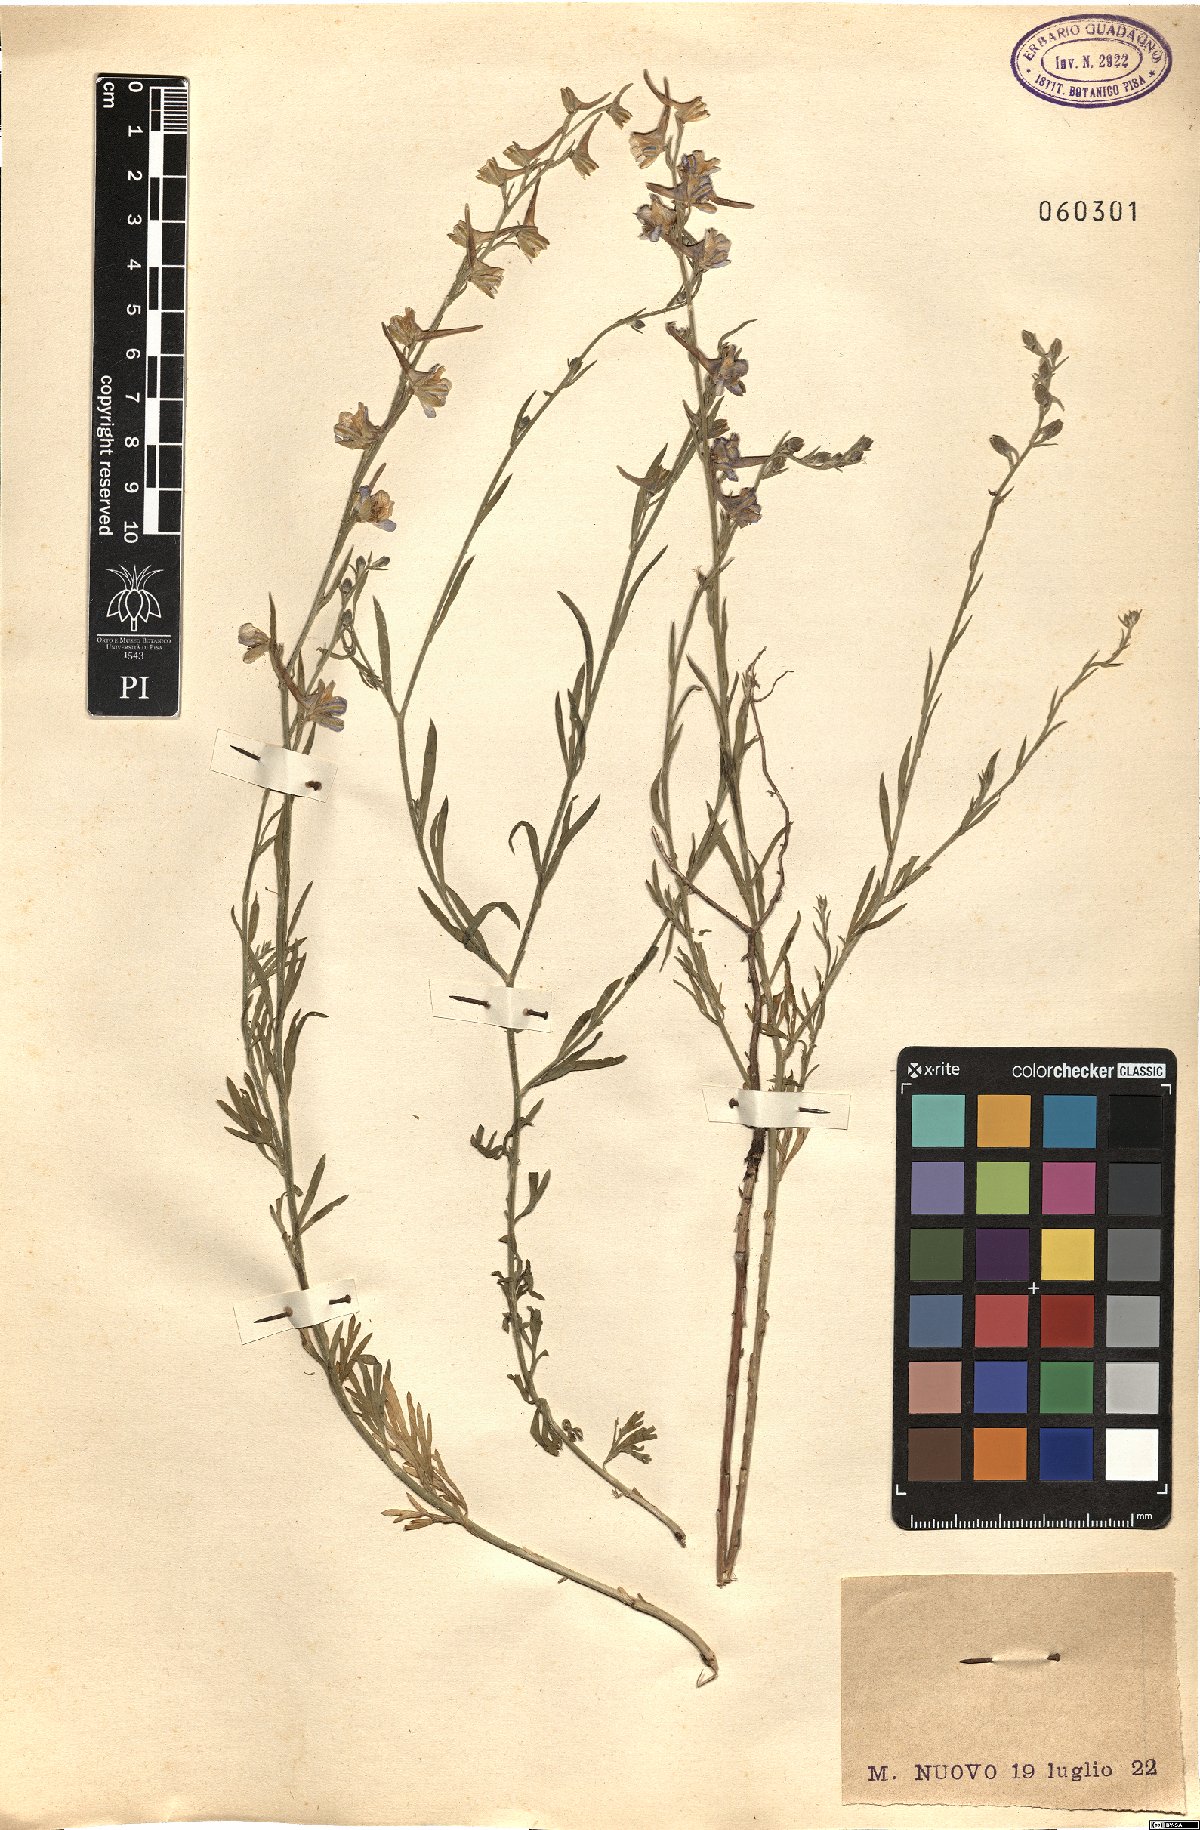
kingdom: Plantae
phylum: Tracheophyta
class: Magnoliopsida
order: Ranunculales
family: Ranunculaceae
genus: Delphinium
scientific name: Delphinium
